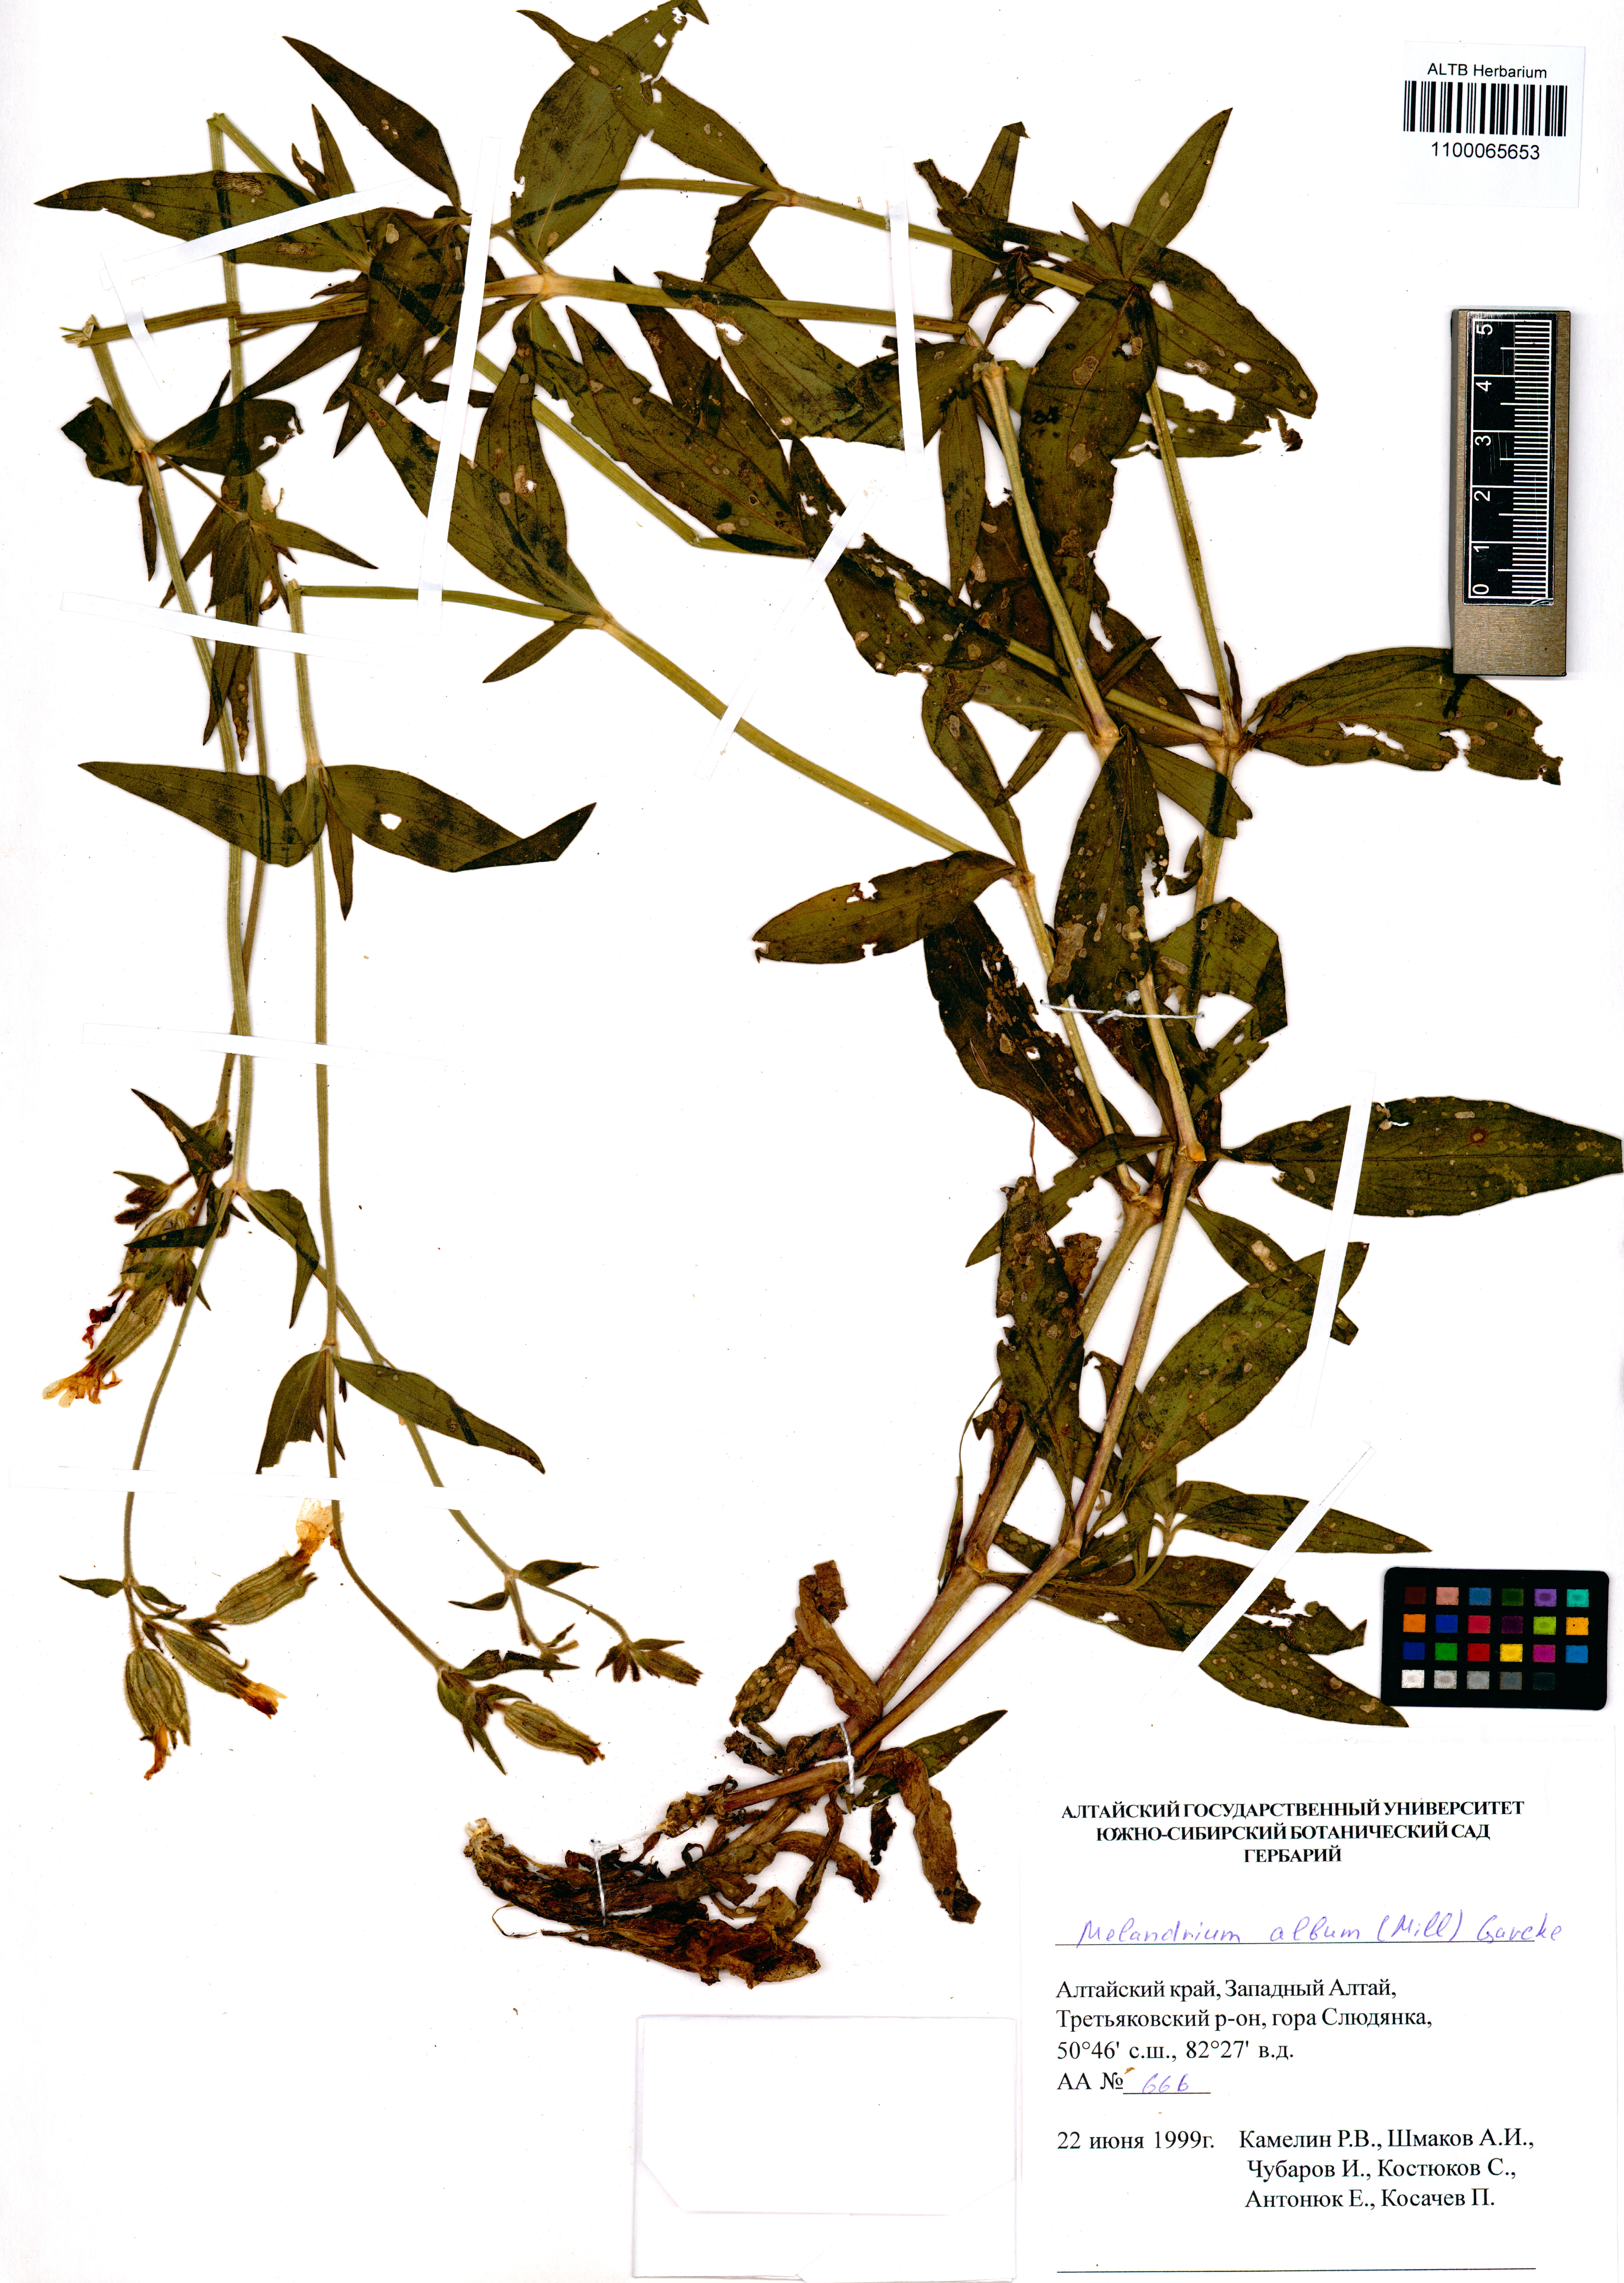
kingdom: Plantae
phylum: Tracheophyta
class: Magnoliopsida
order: Caryophyllales
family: Caryophyllaceae
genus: Silene
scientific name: Silene latifolia
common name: White campion
